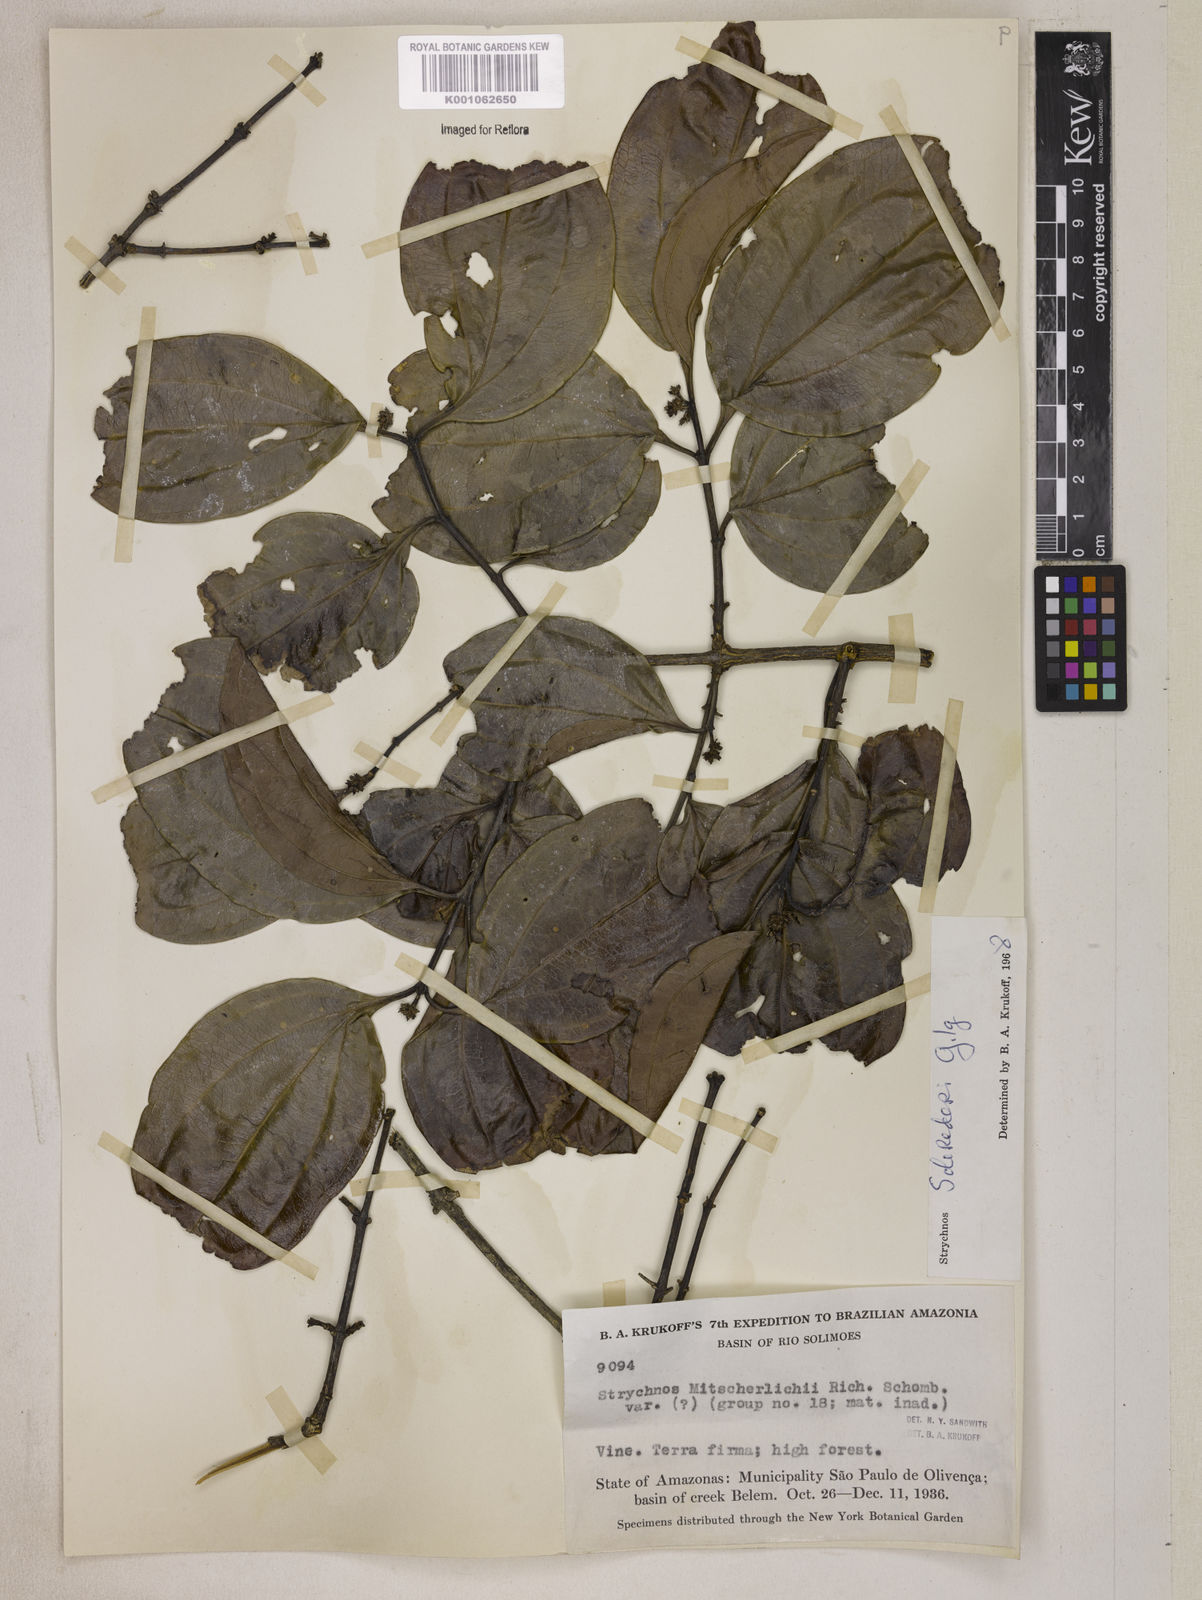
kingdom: Plantae
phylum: Tracheophyta
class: Magnoliopsida
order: Gentianales
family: Loganiaceae
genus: Strychnos
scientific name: Strychnos solerederi
